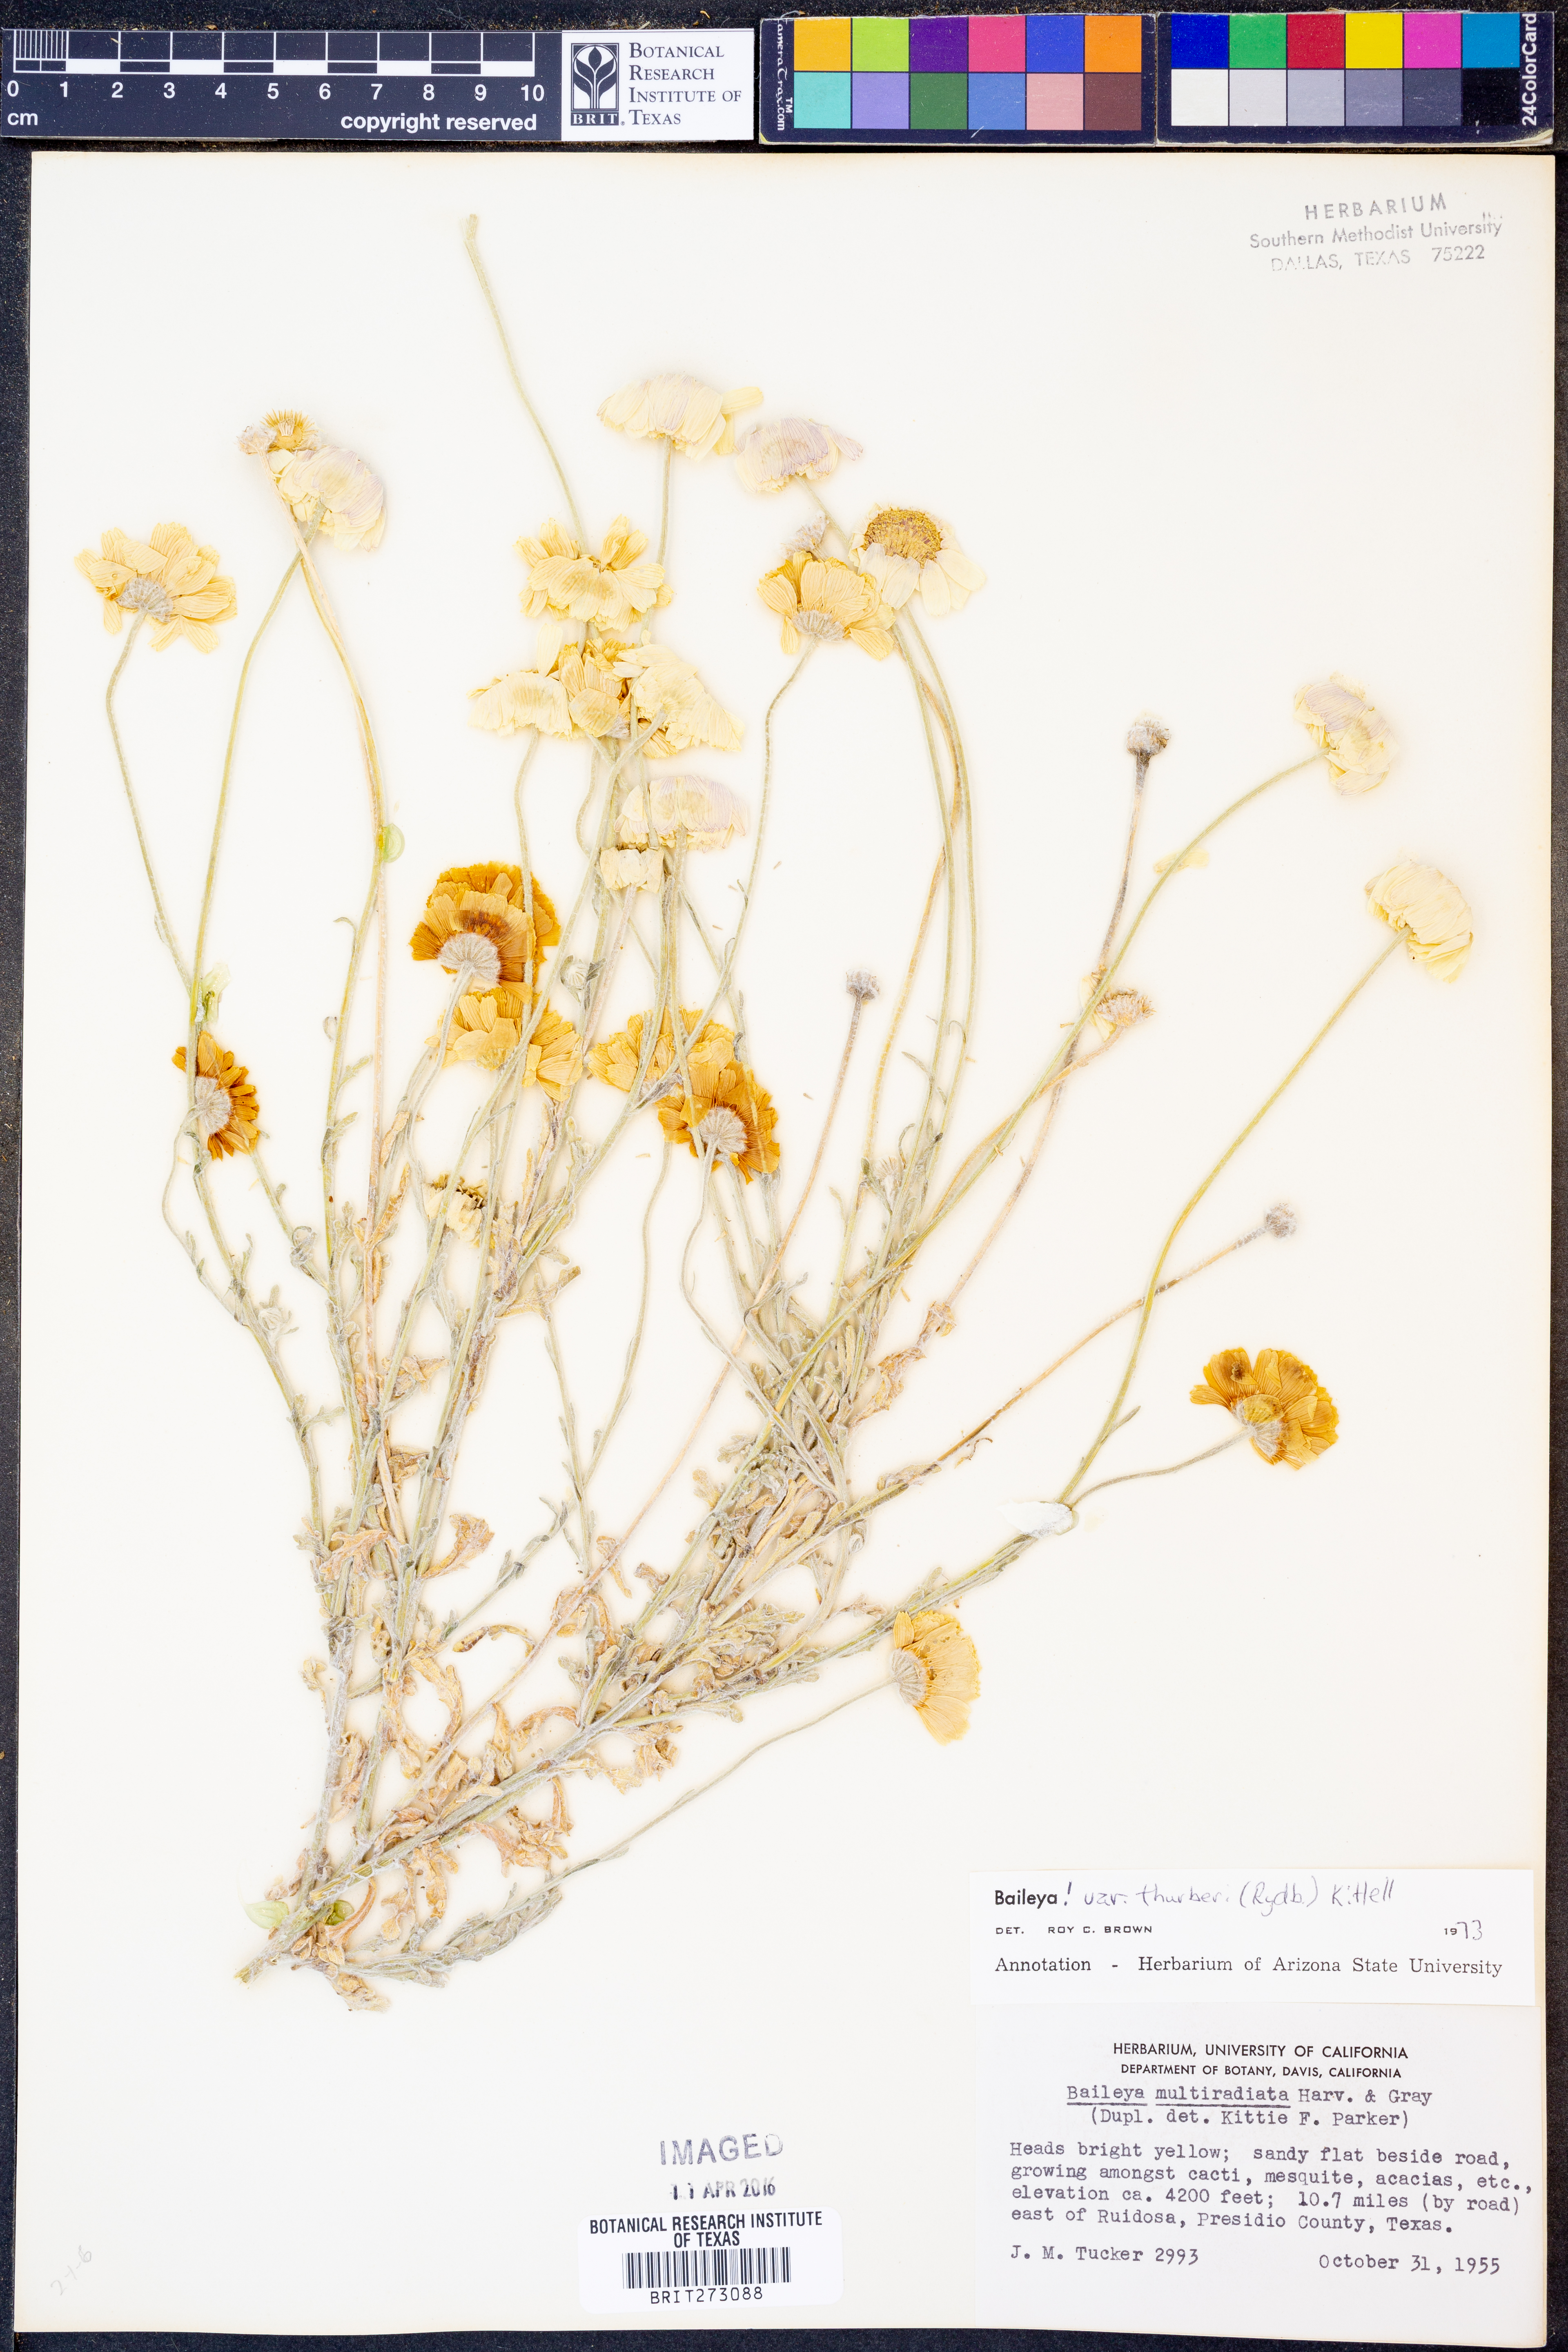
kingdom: Plantae
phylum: Tracheophyta
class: Magnoliopsida
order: Asterales
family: Asteraceae
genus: Baileya
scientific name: Baileya multiradiata
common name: Desert-marigold
